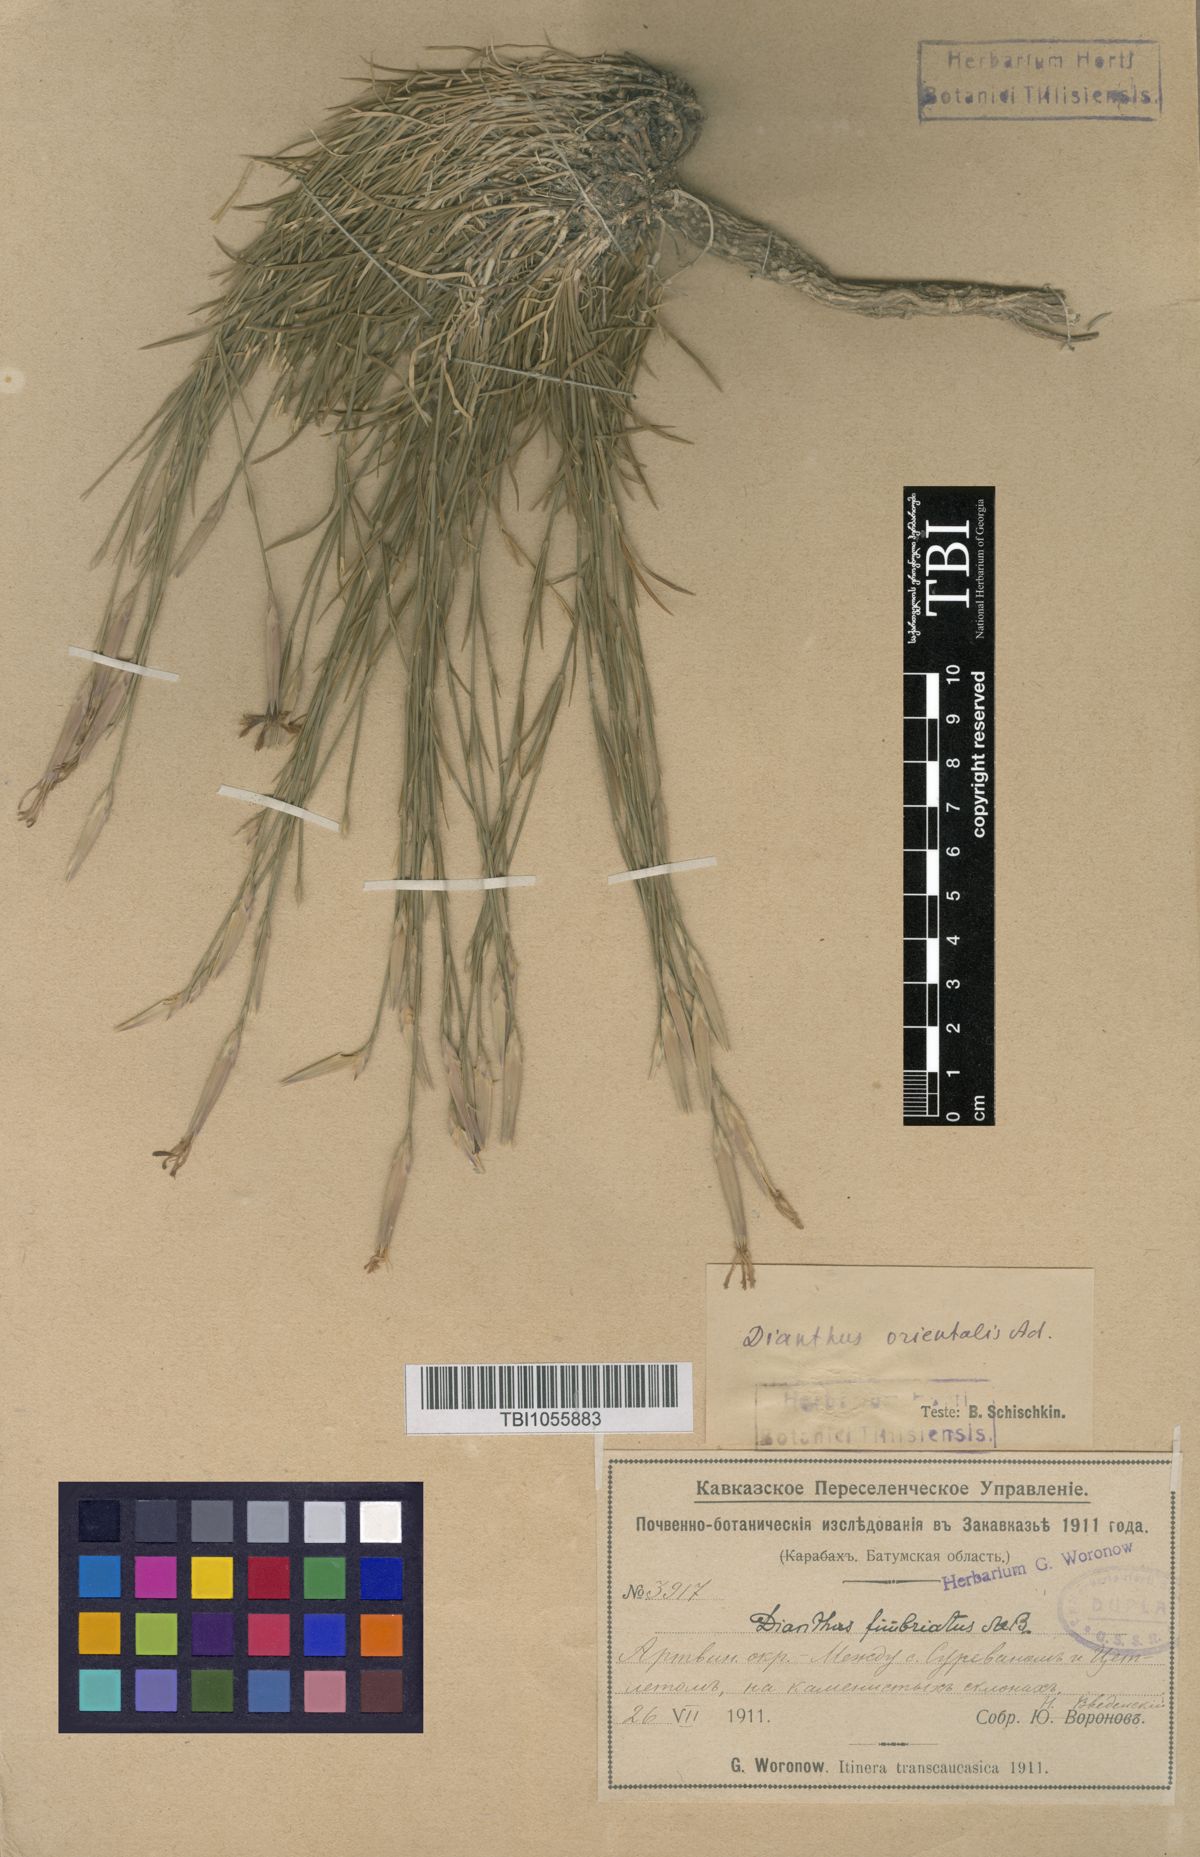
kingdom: Plantae
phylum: Tracheophyta
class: Magnoliopsida
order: Caryophyllales
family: Caryophyllaceae
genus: Dianthus
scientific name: Dianthus orientalis
